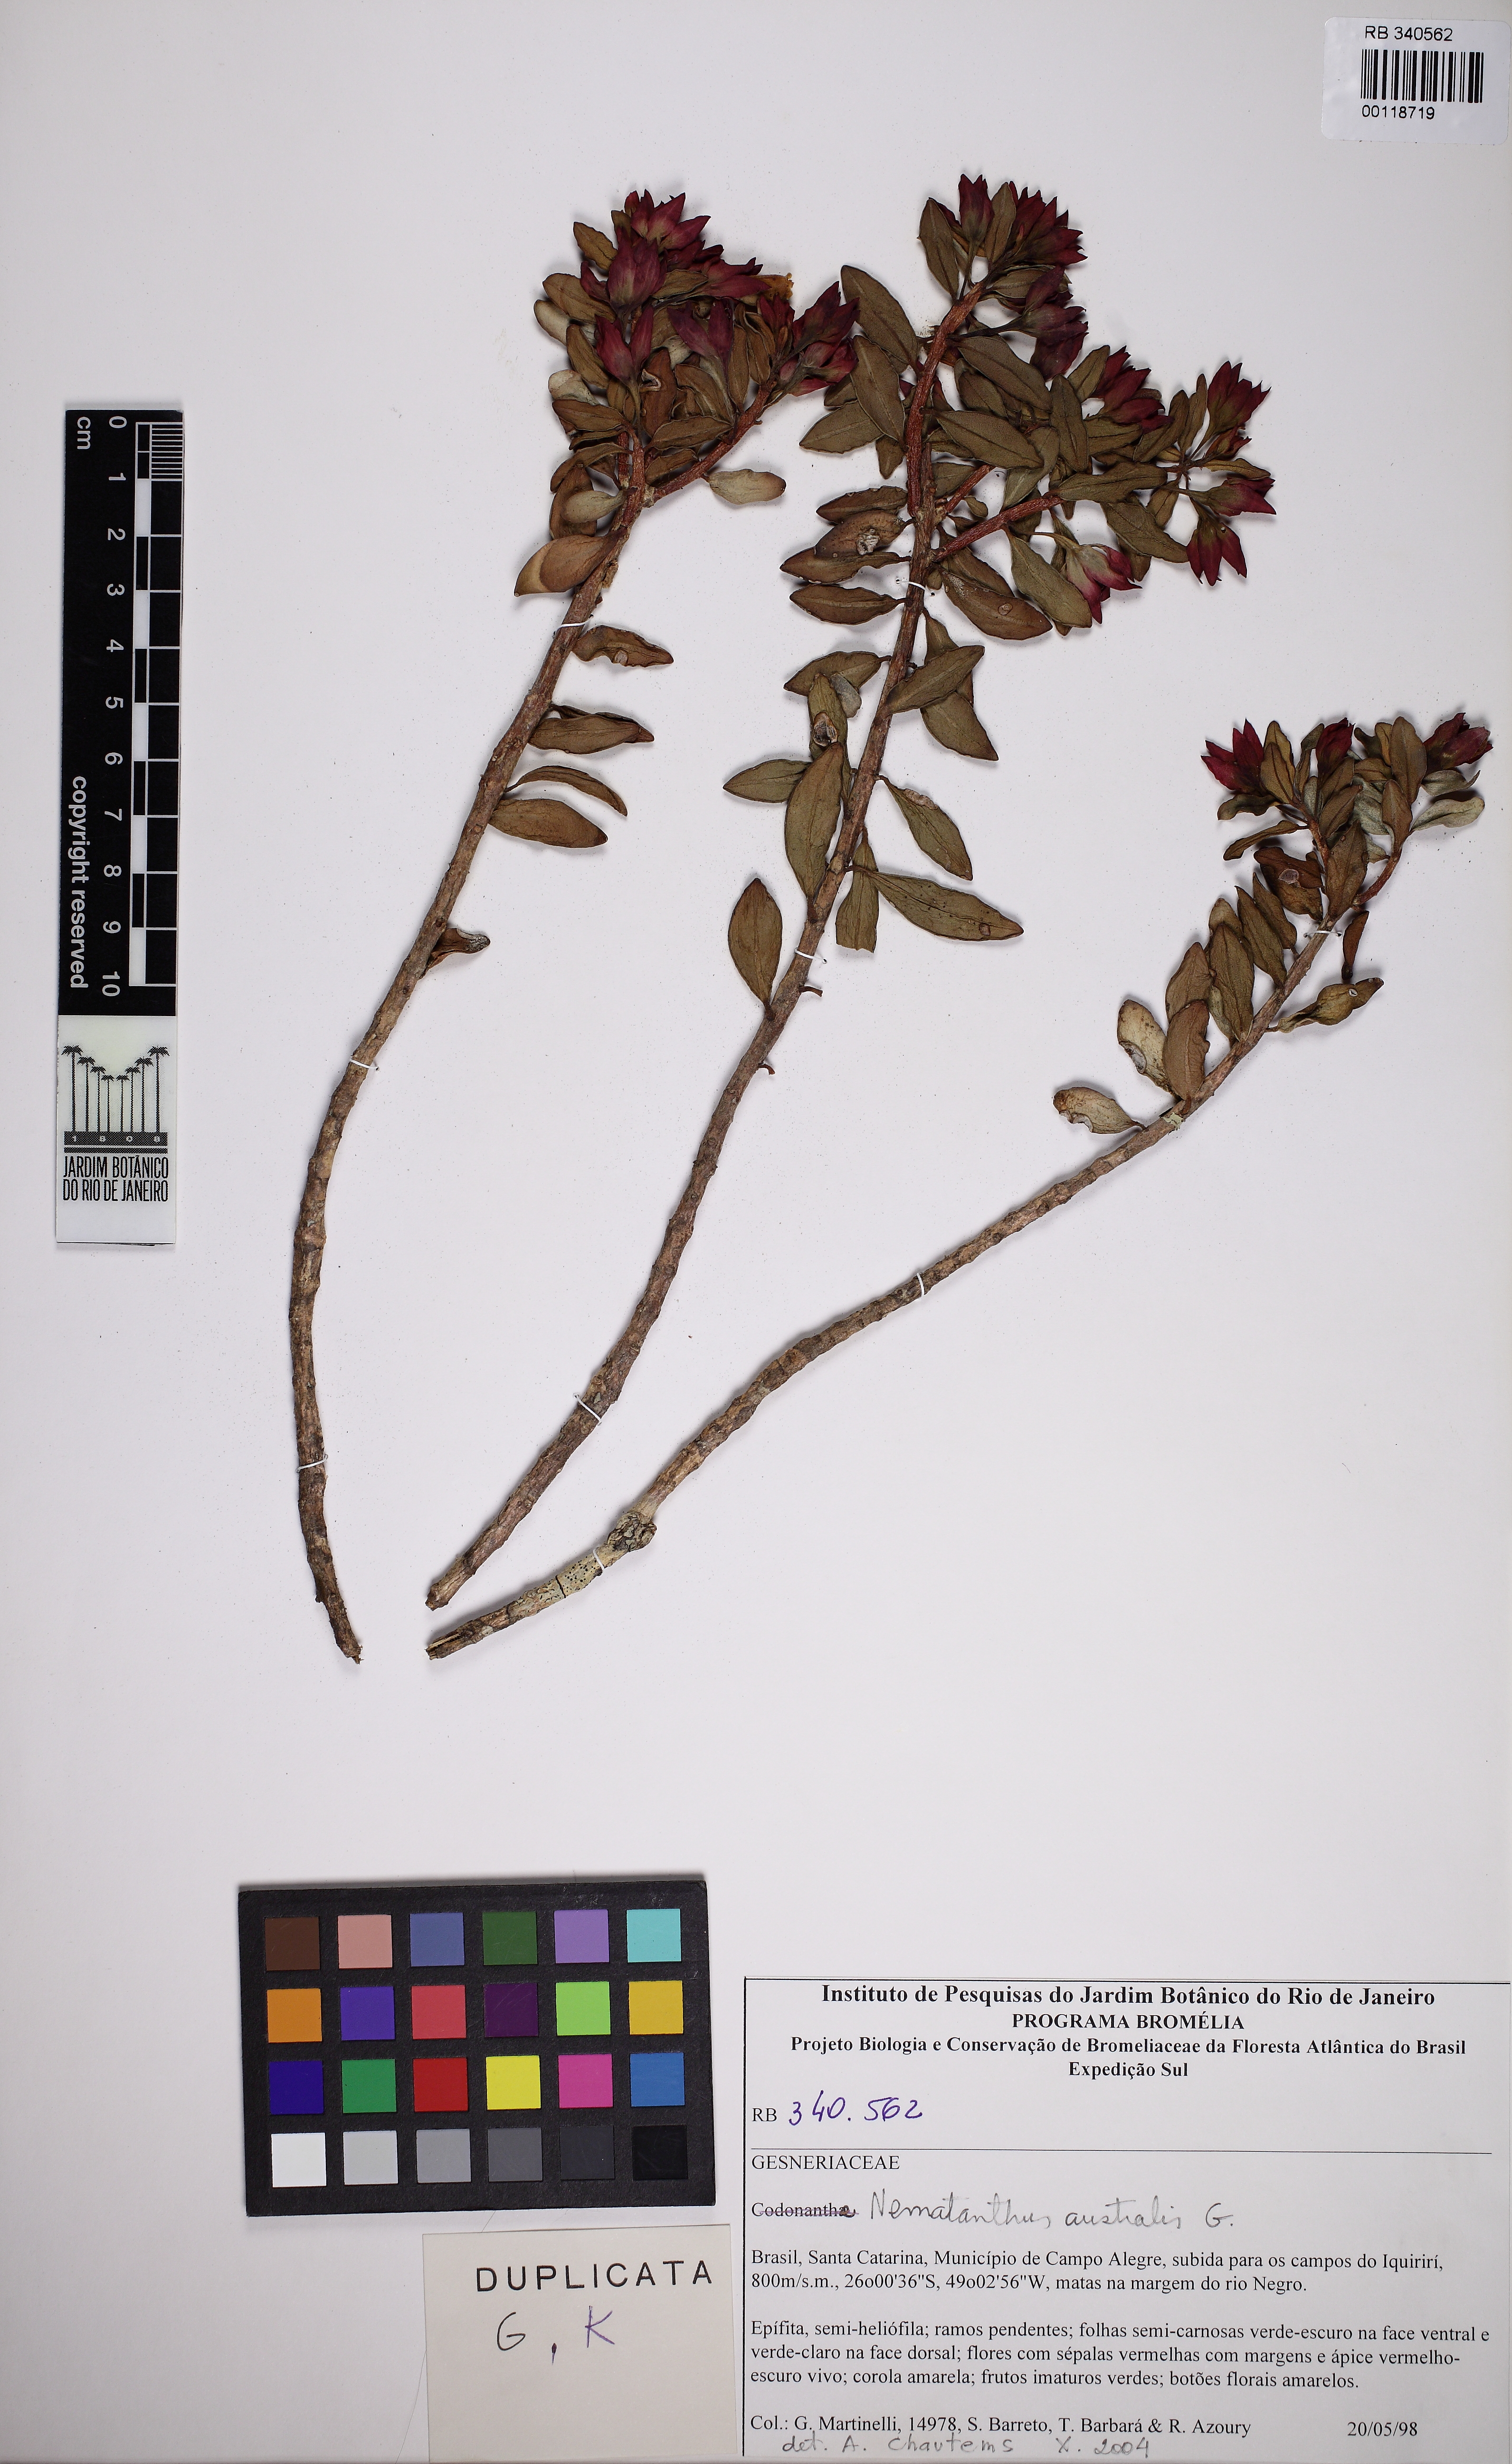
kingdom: Plantae
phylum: Tracheophyta
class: Magnoliopsida
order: Lamiales
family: Gesneriaceae
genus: Nematanthus
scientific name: Nematanthus australis
